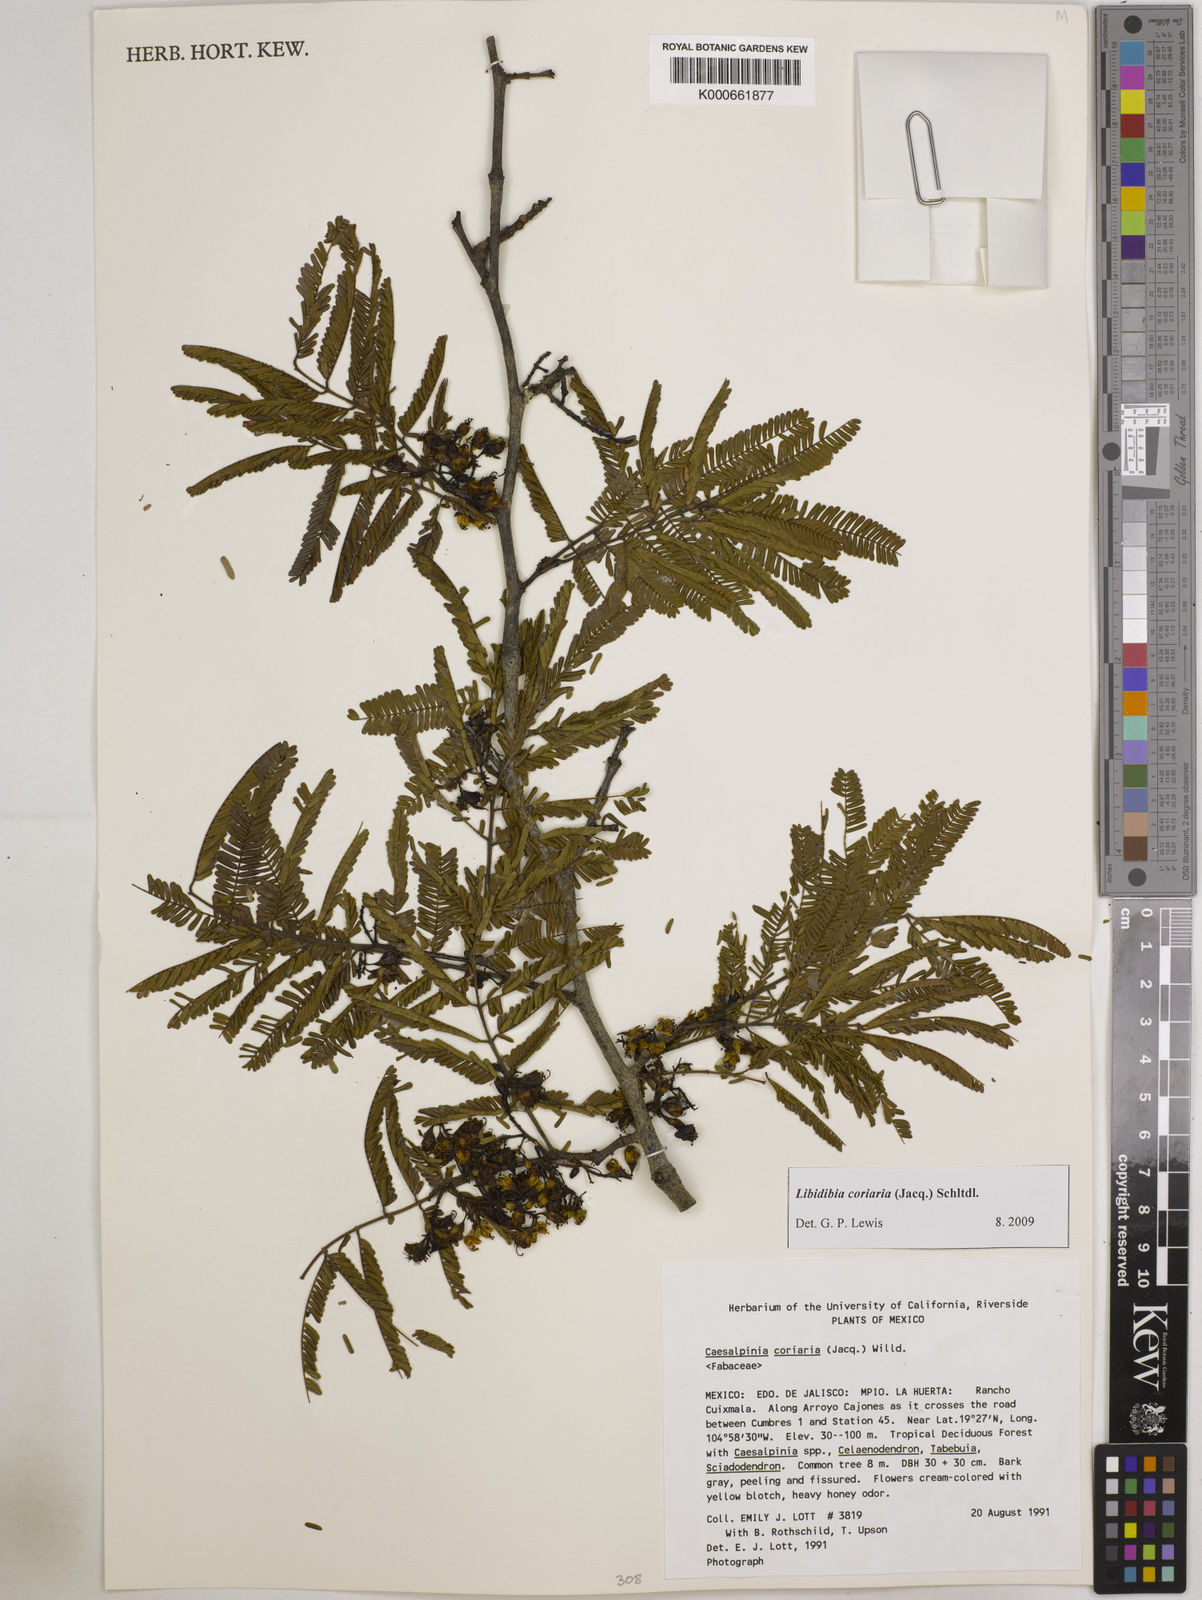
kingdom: Plantae
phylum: Tracheophyta
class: Magnoliopsida
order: Fabales
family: Fabaceae
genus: Libidibia
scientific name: Libidibia coriaria
